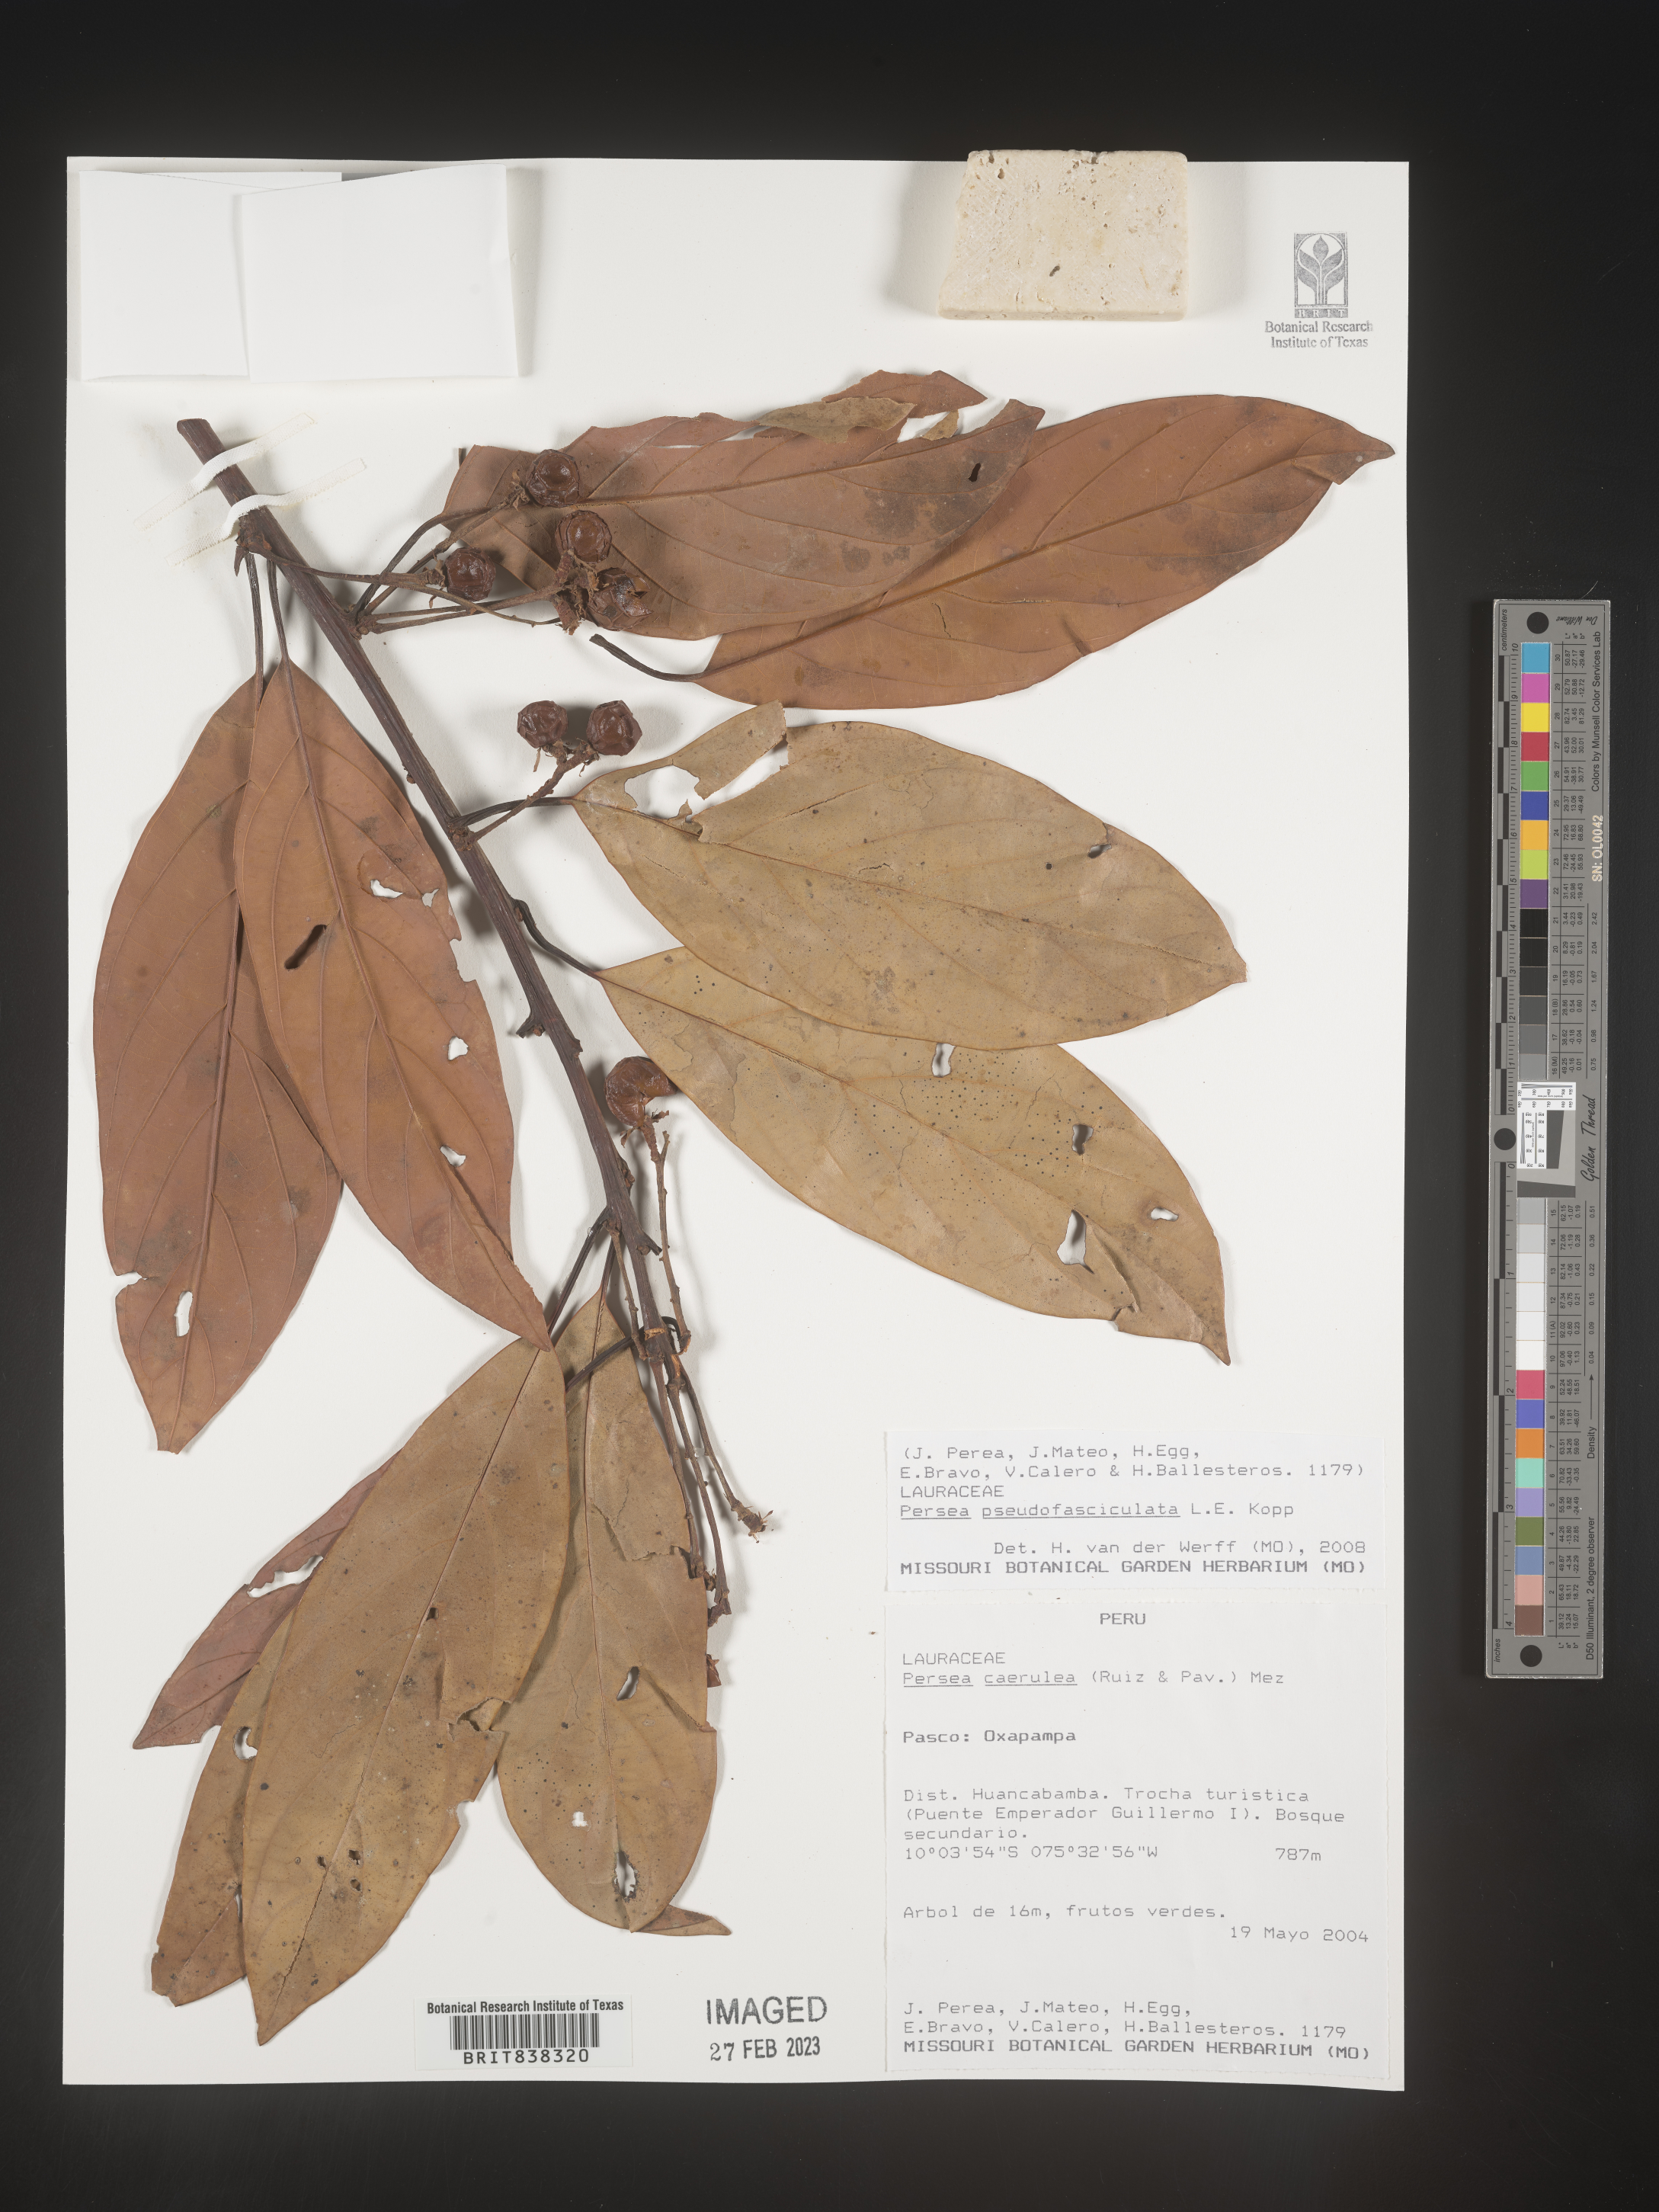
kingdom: Plantae
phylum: Tracheophyta
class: Magnoliopsida
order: Laurales
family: Lauraceae
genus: Persea
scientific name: Persea pseudofasciculata
